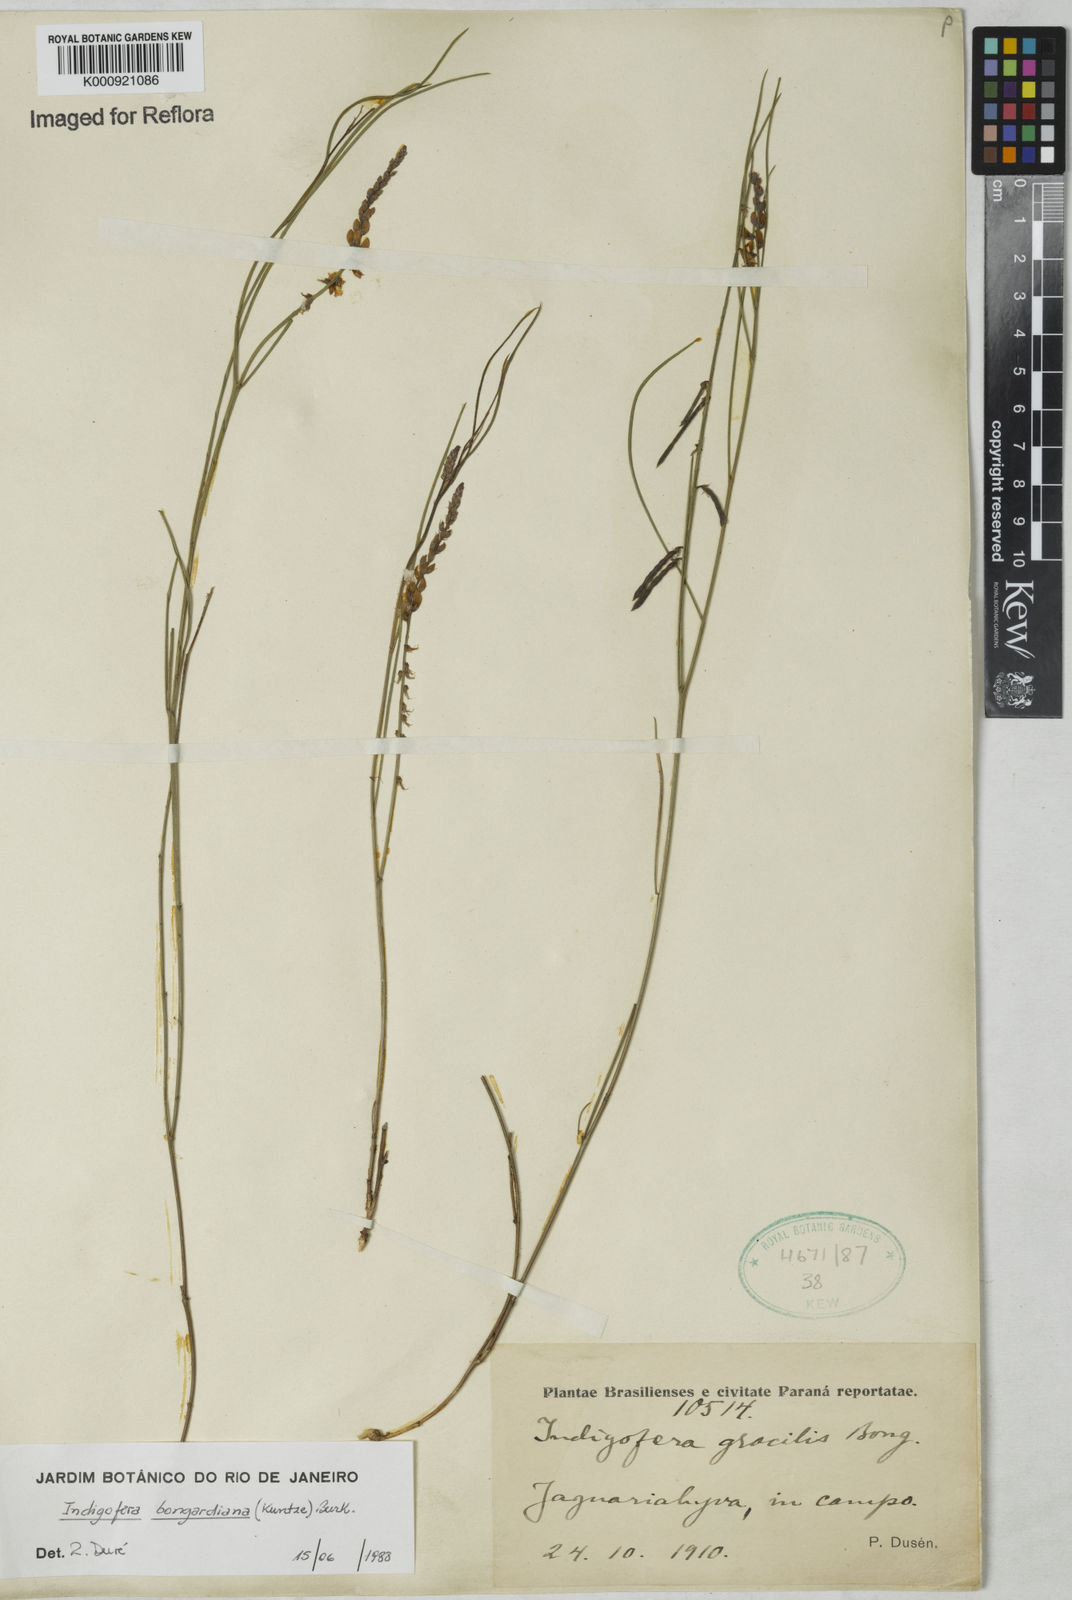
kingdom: Plantae
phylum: Tracheophyta
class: Magnoliopsida
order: Fabales
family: Fabaceae
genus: Indigofera
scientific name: Indigofera bongardiana
